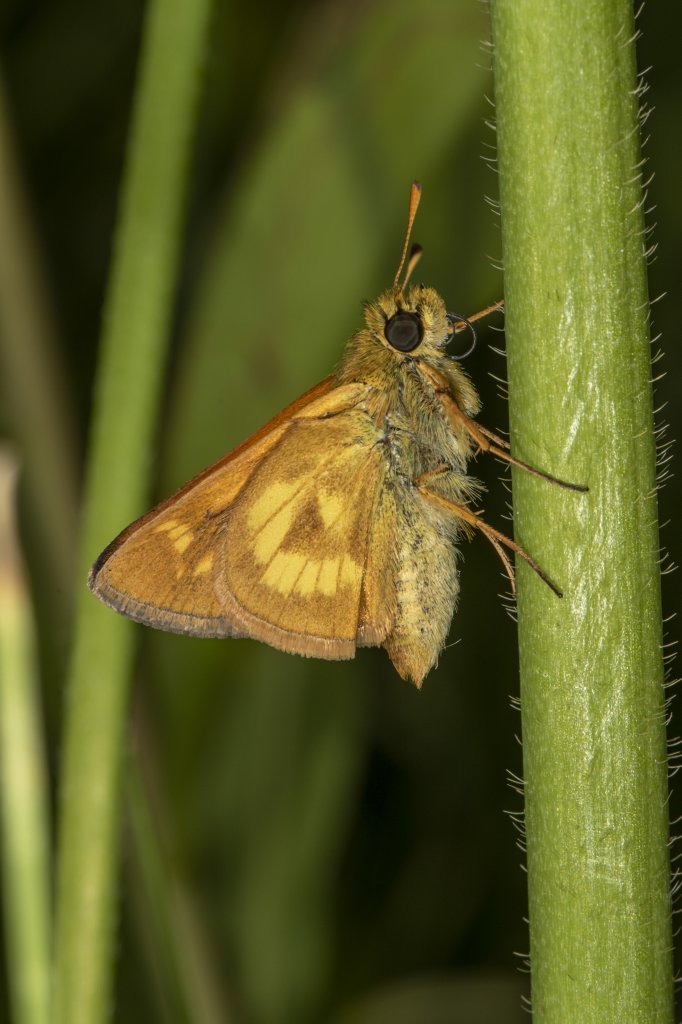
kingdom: Animalia
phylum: Arthropoda
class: Insecta
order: Lepidoptera
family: Hesperiidae
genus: Polites
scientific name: Polites
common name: Long Dash Skipper
